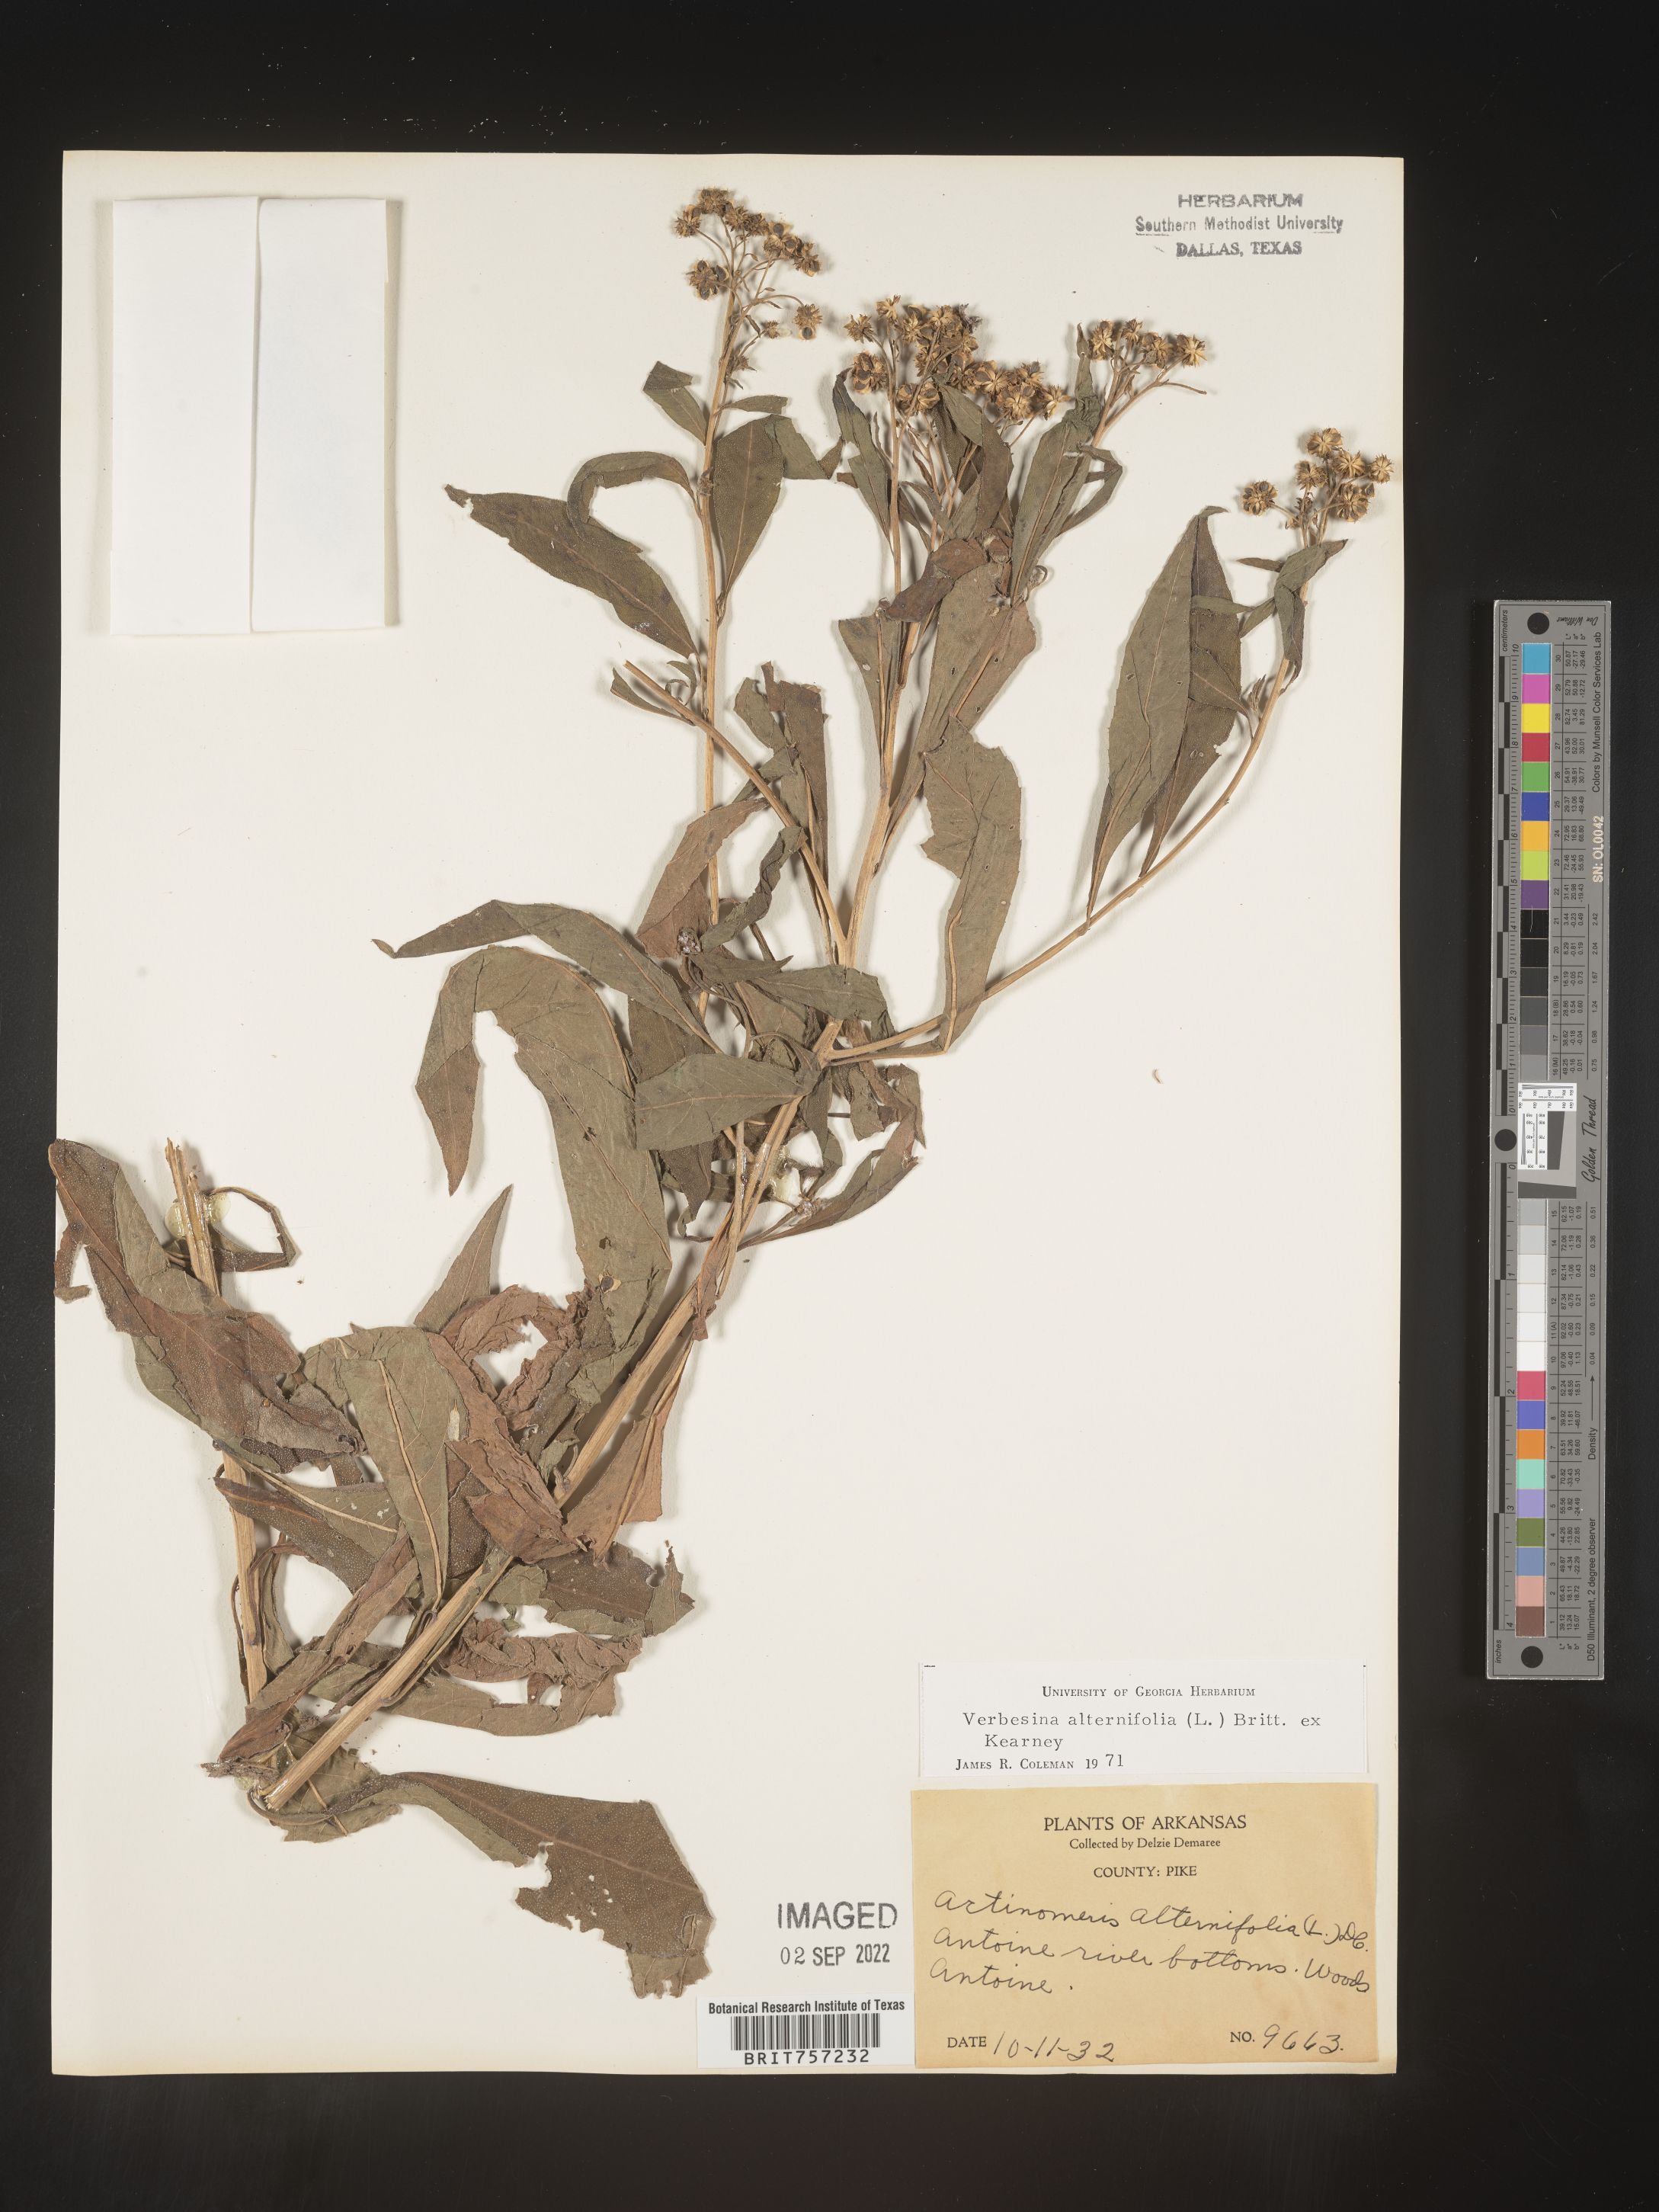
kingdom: Plantae
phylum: Tracheophyta
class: Magnoliopsida
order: Asterales
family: Asteraceae
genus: Verbesina
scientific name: Verbesina alternifolia
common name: Wingstem
